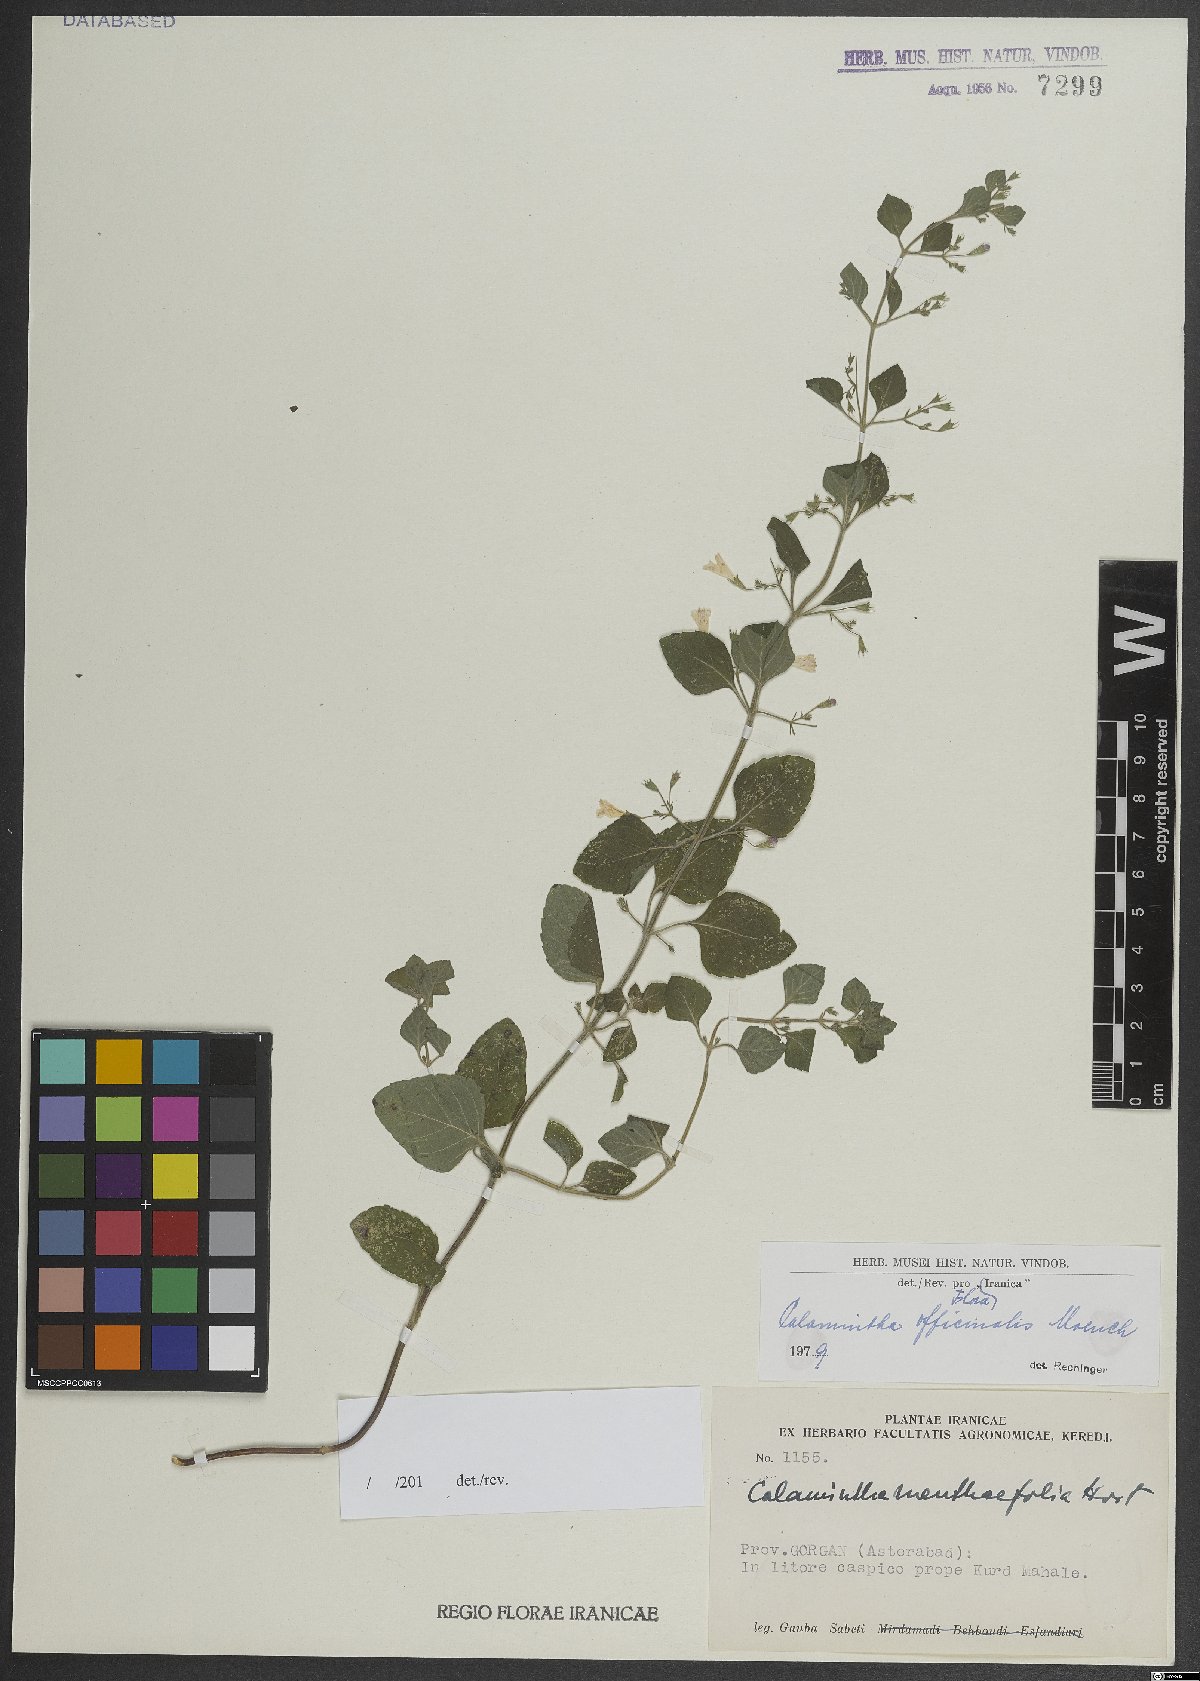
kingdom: Plantae
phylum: Tracheophyta
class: Magnoliopsida
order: Lamiales
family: Lamiaceae
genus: Clinopodium
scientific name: Clinopodium nepeta
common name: Lesser calamint
